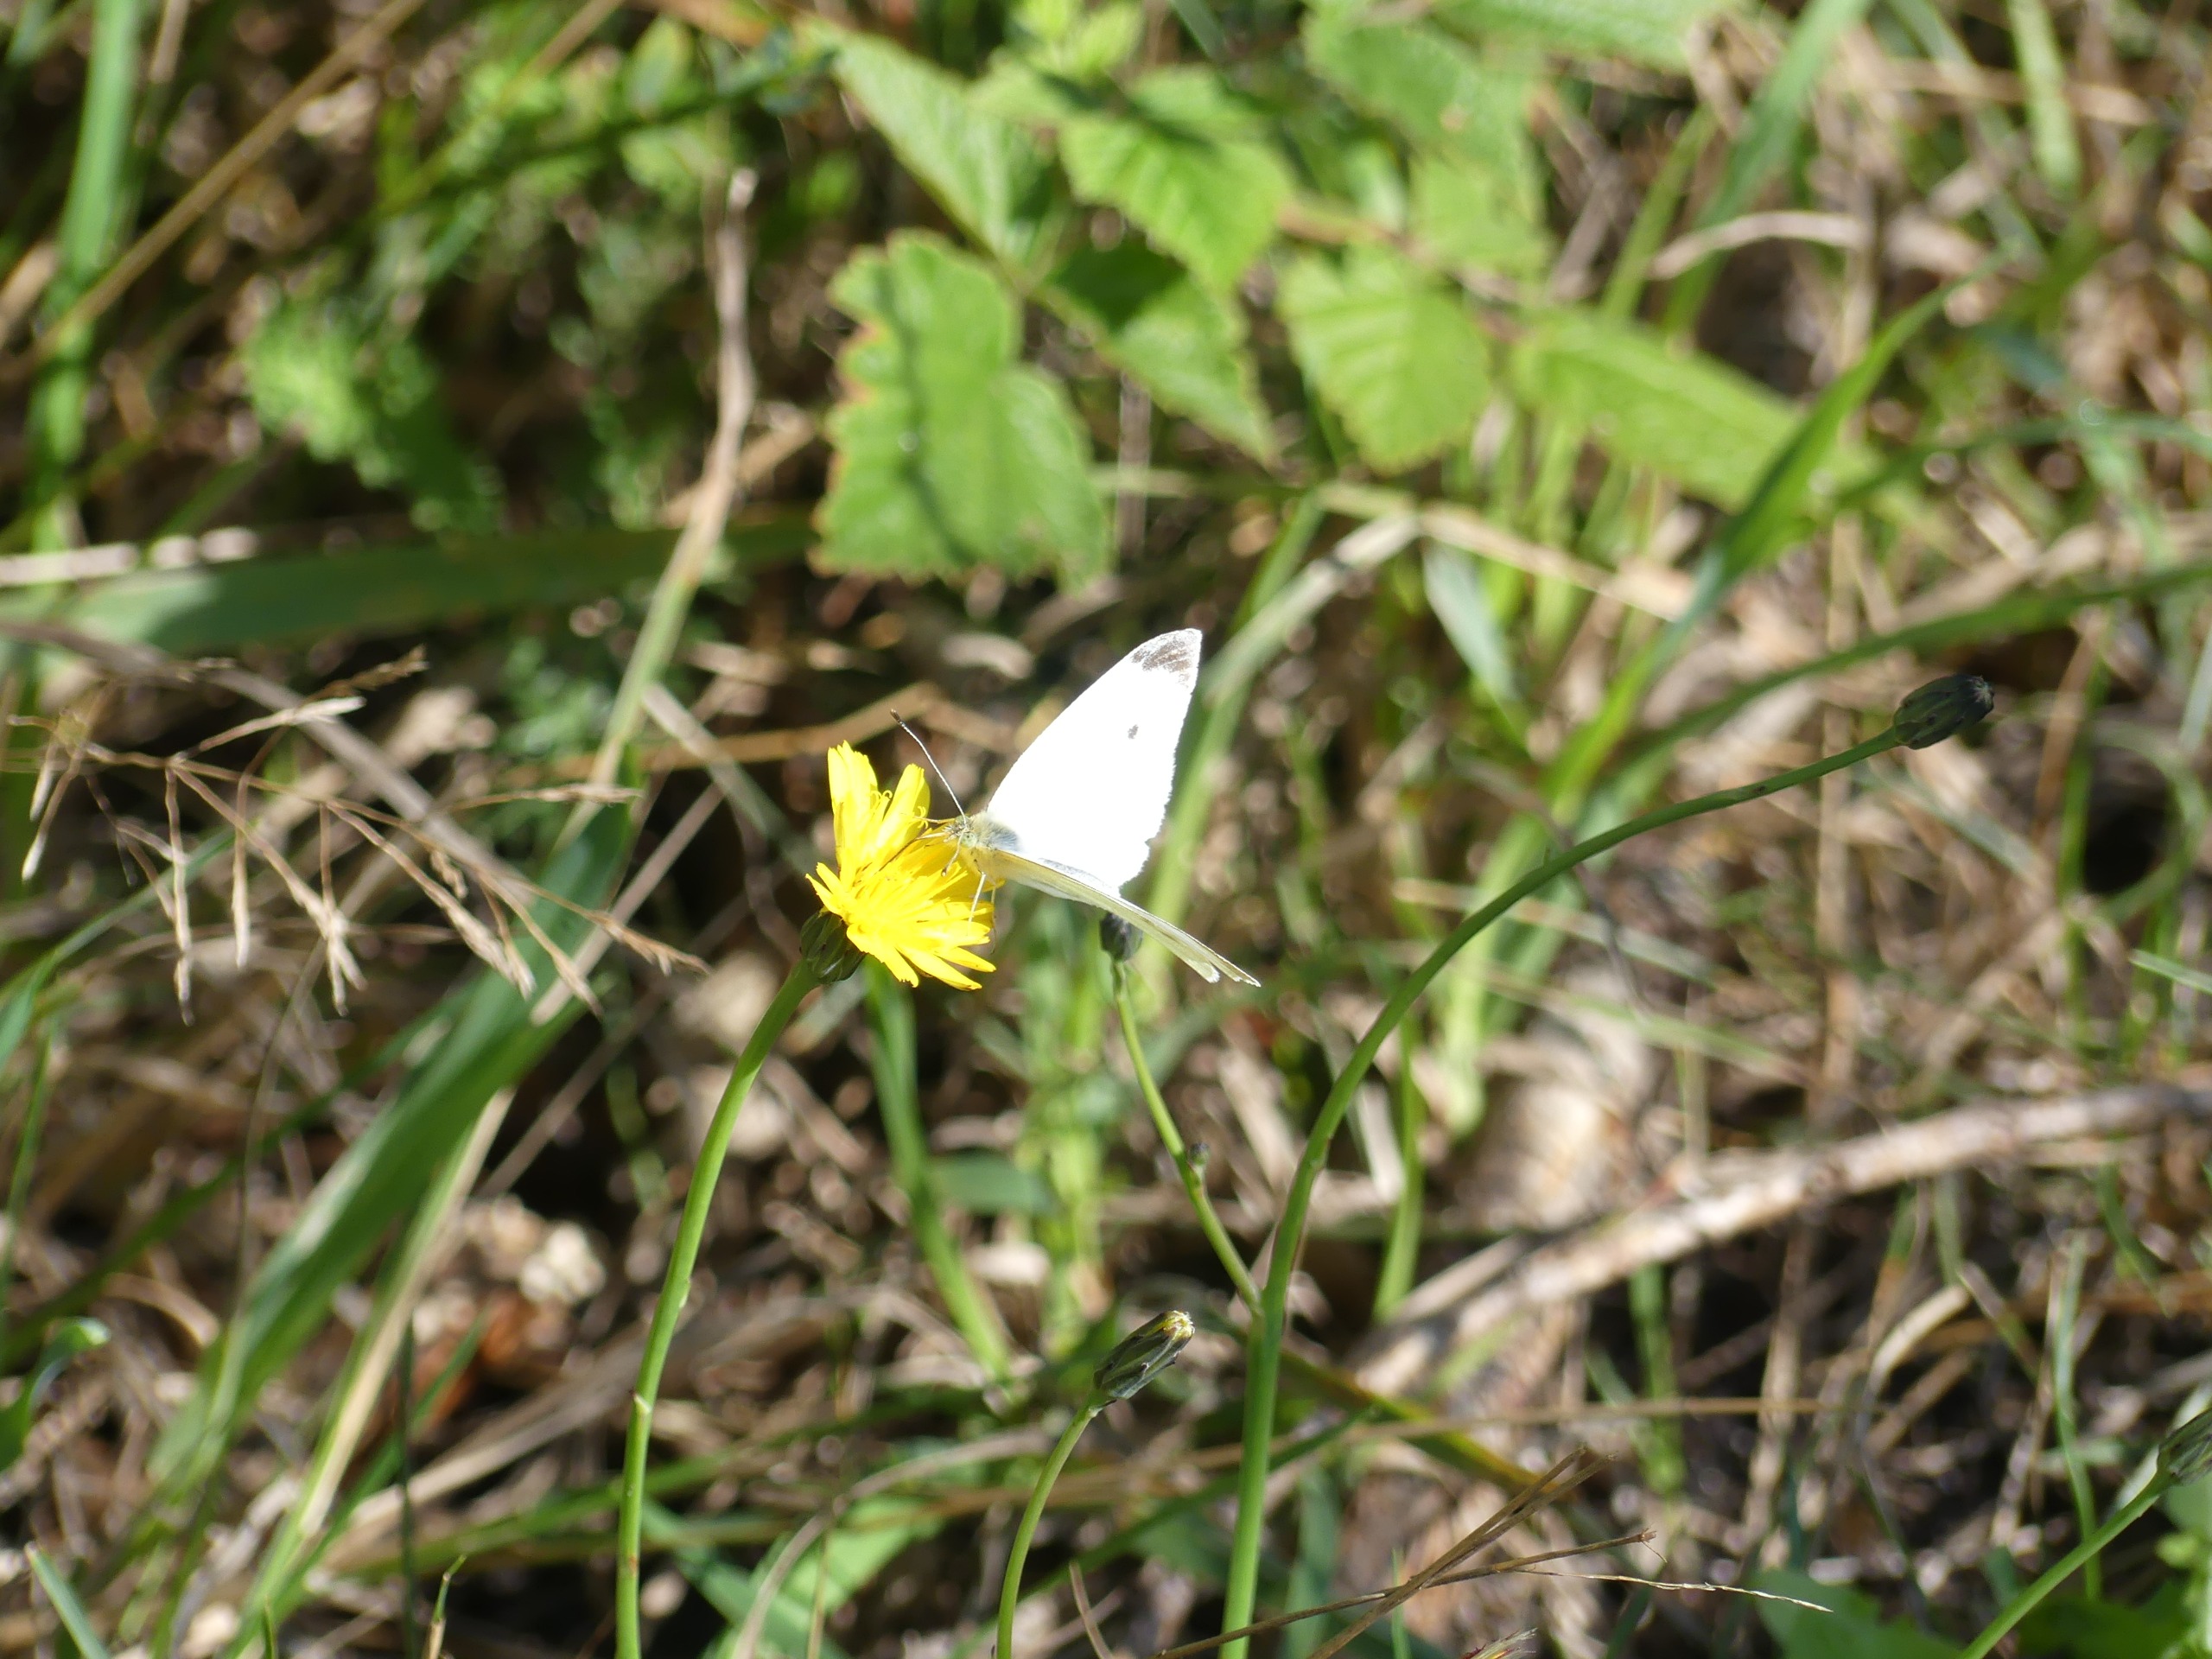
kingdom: Animalia
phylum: Arthropoda
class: Insecta
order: Lepidoptera
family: Pieridae
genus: Pieris
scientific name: Pieris rapae
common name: Lille kålsommerfugl
